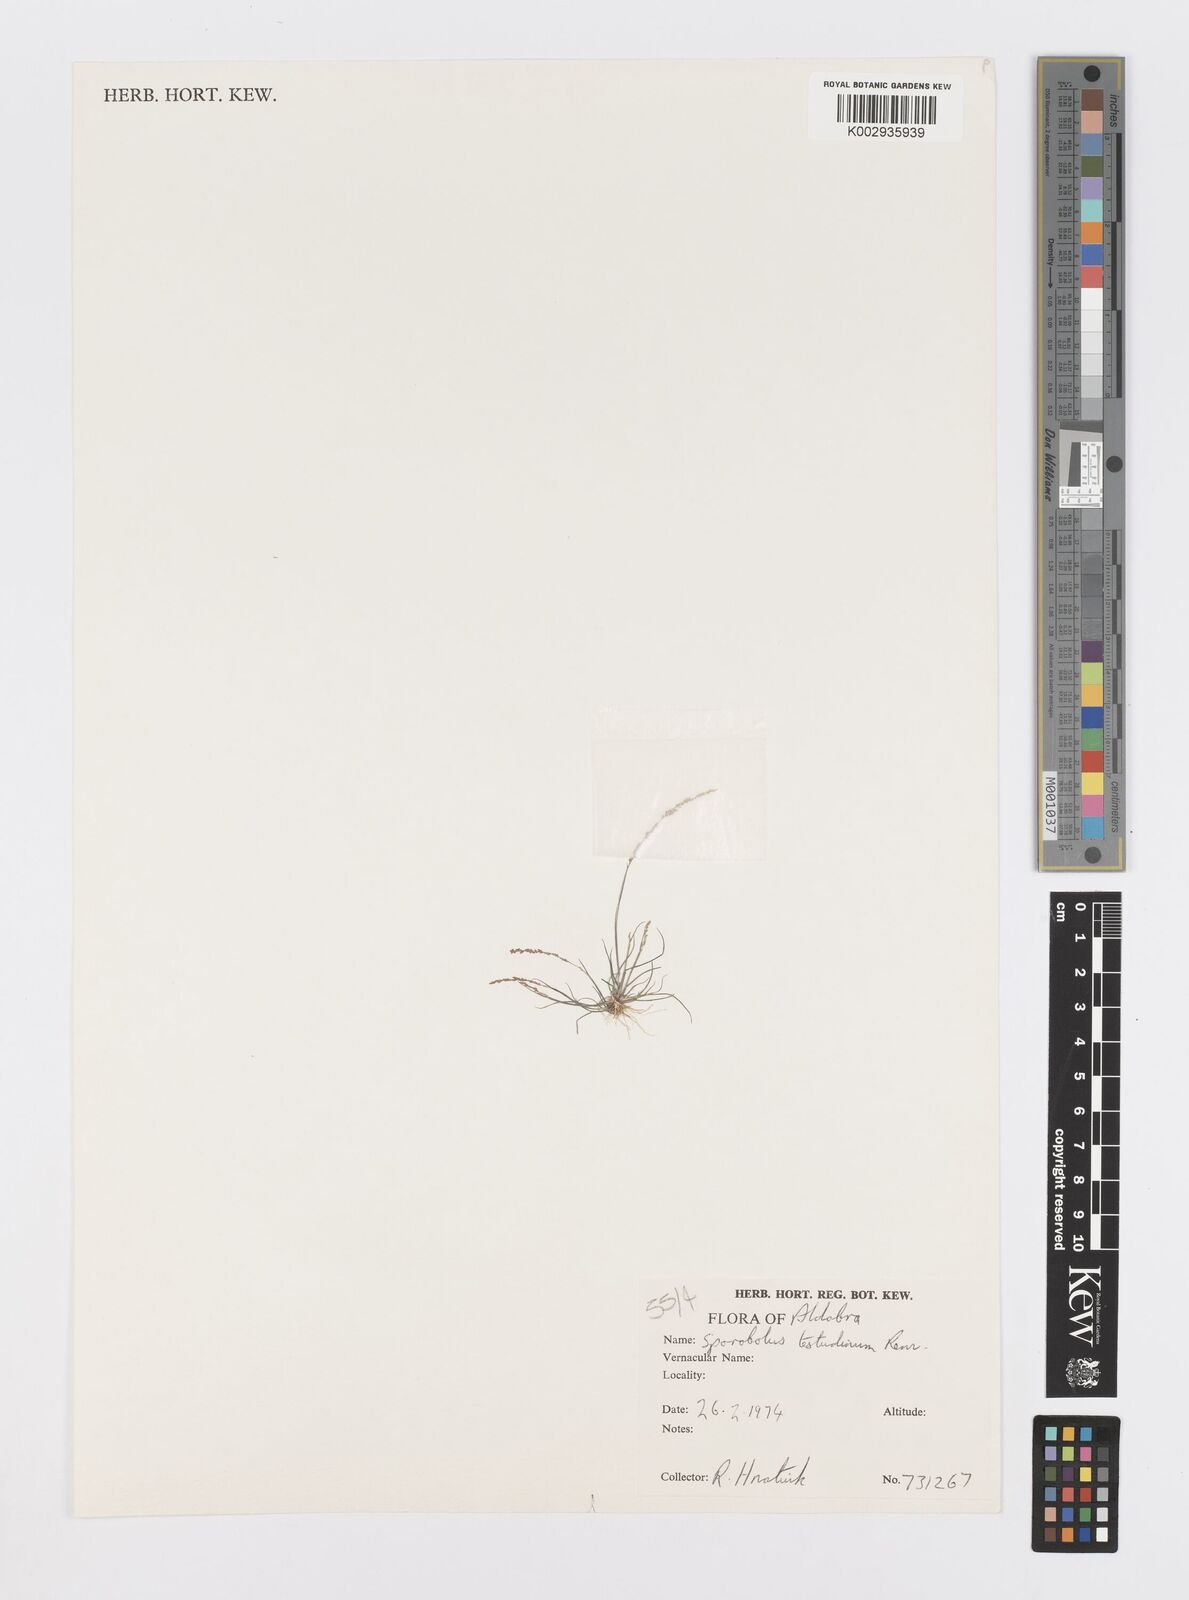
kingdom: Plantae
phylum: Tracheophyta
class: Liliopsida
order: Poales
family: Poaceae
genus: Sporobolus
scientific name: Sporobolus testudinum
